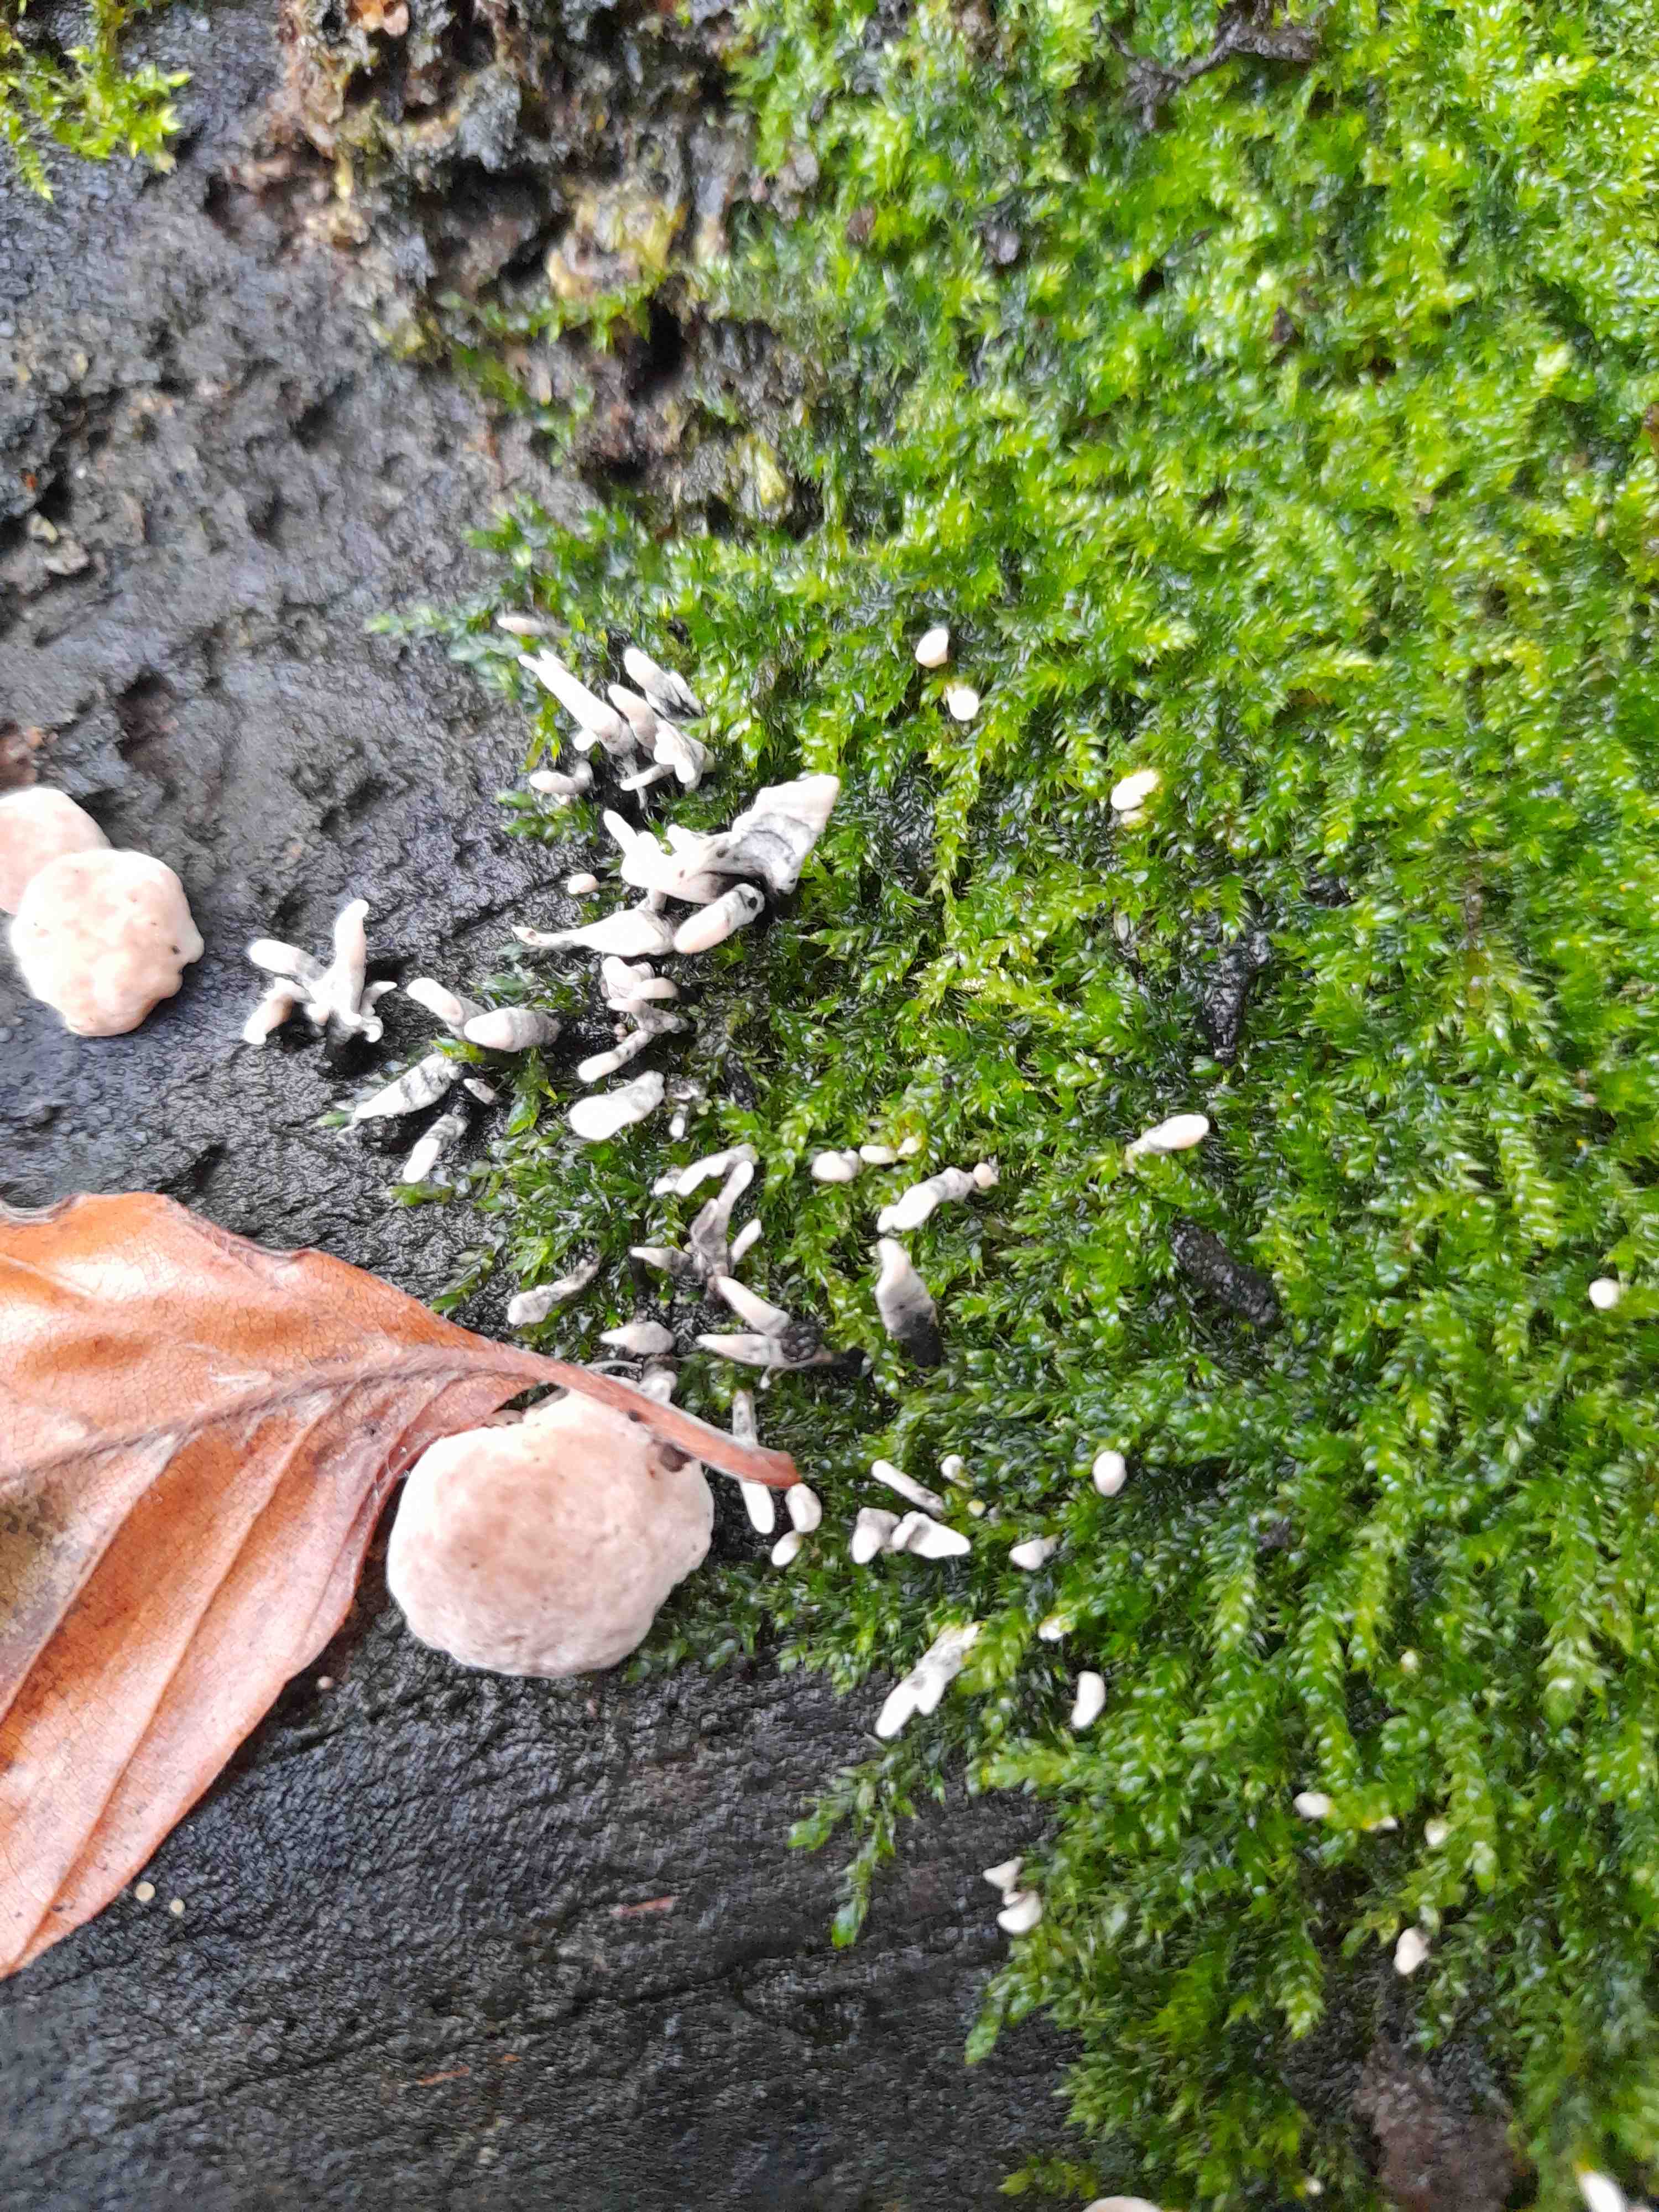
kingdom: Fungi
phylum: Ascomycota
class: Sordariomycetes
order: Xylariales
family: Xylariaceae
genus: Xylaria
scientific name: Xylaria hypoxylon
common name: grenet stødsvamp
